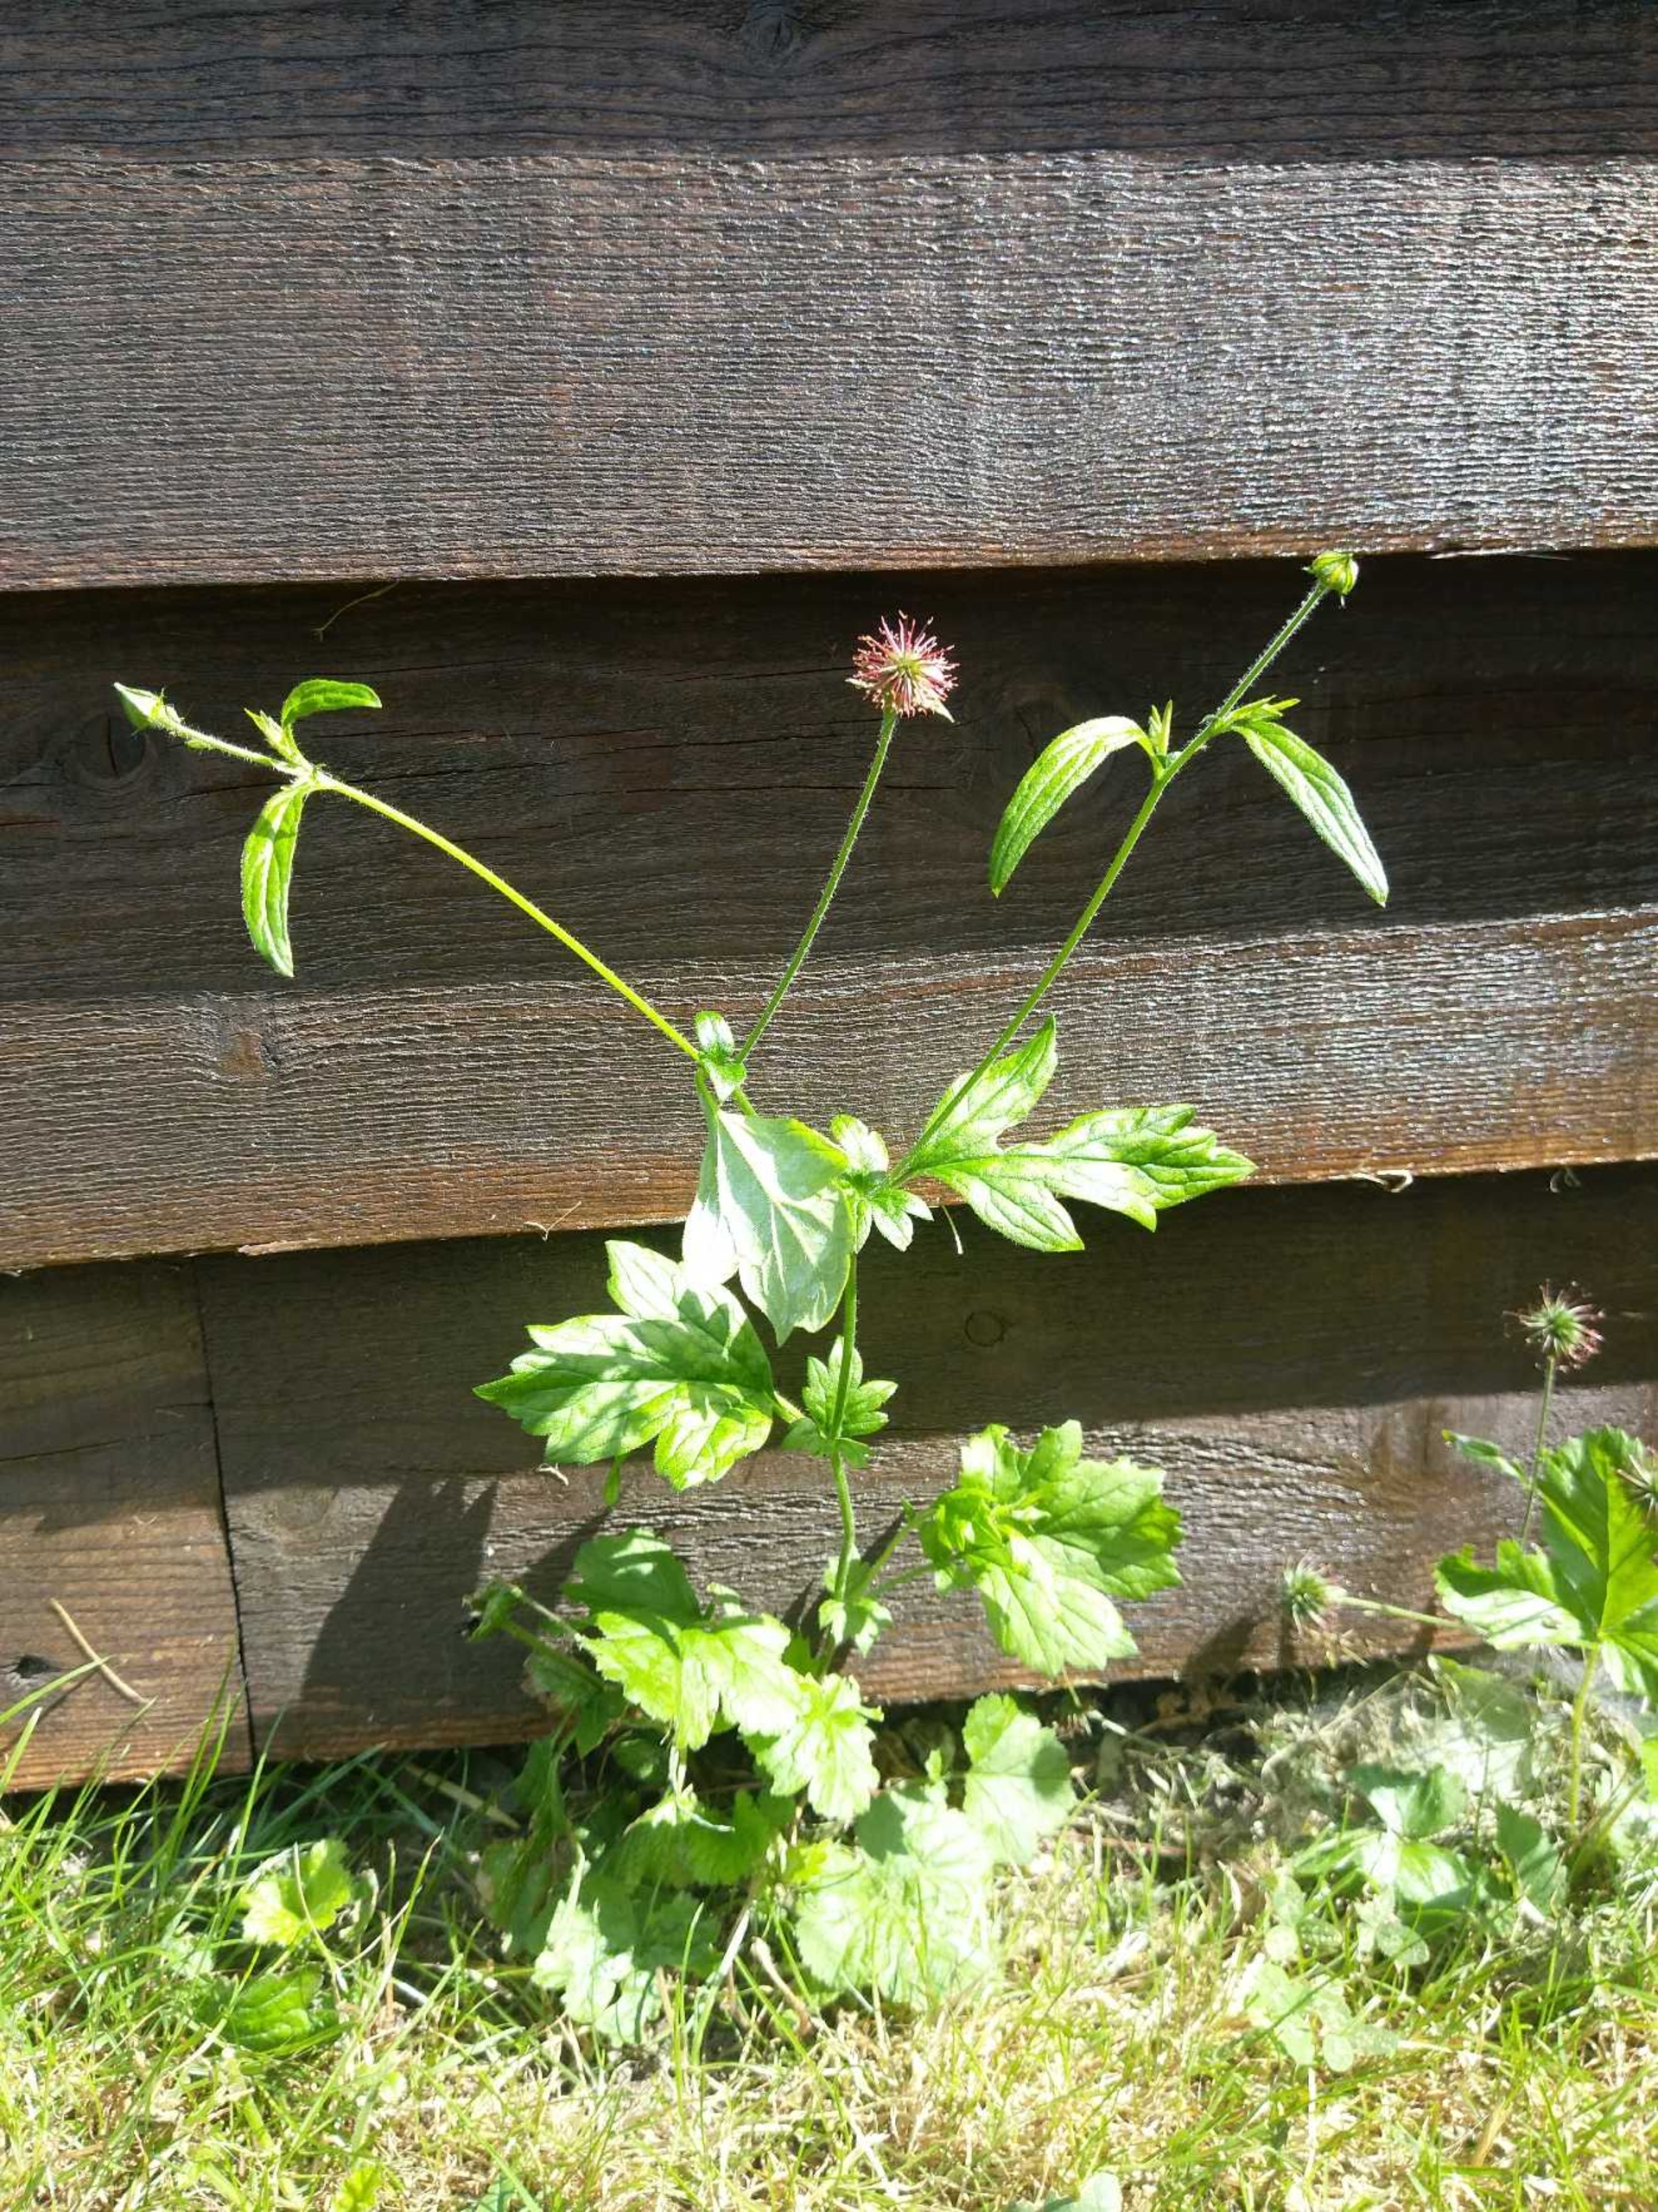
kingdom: Plantae
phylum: Tracheophyta
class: Magnoliopsida
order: Rosales
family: Rosaceae
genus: Geum
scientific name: Geum urbanum
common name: Feber-nellikerod
